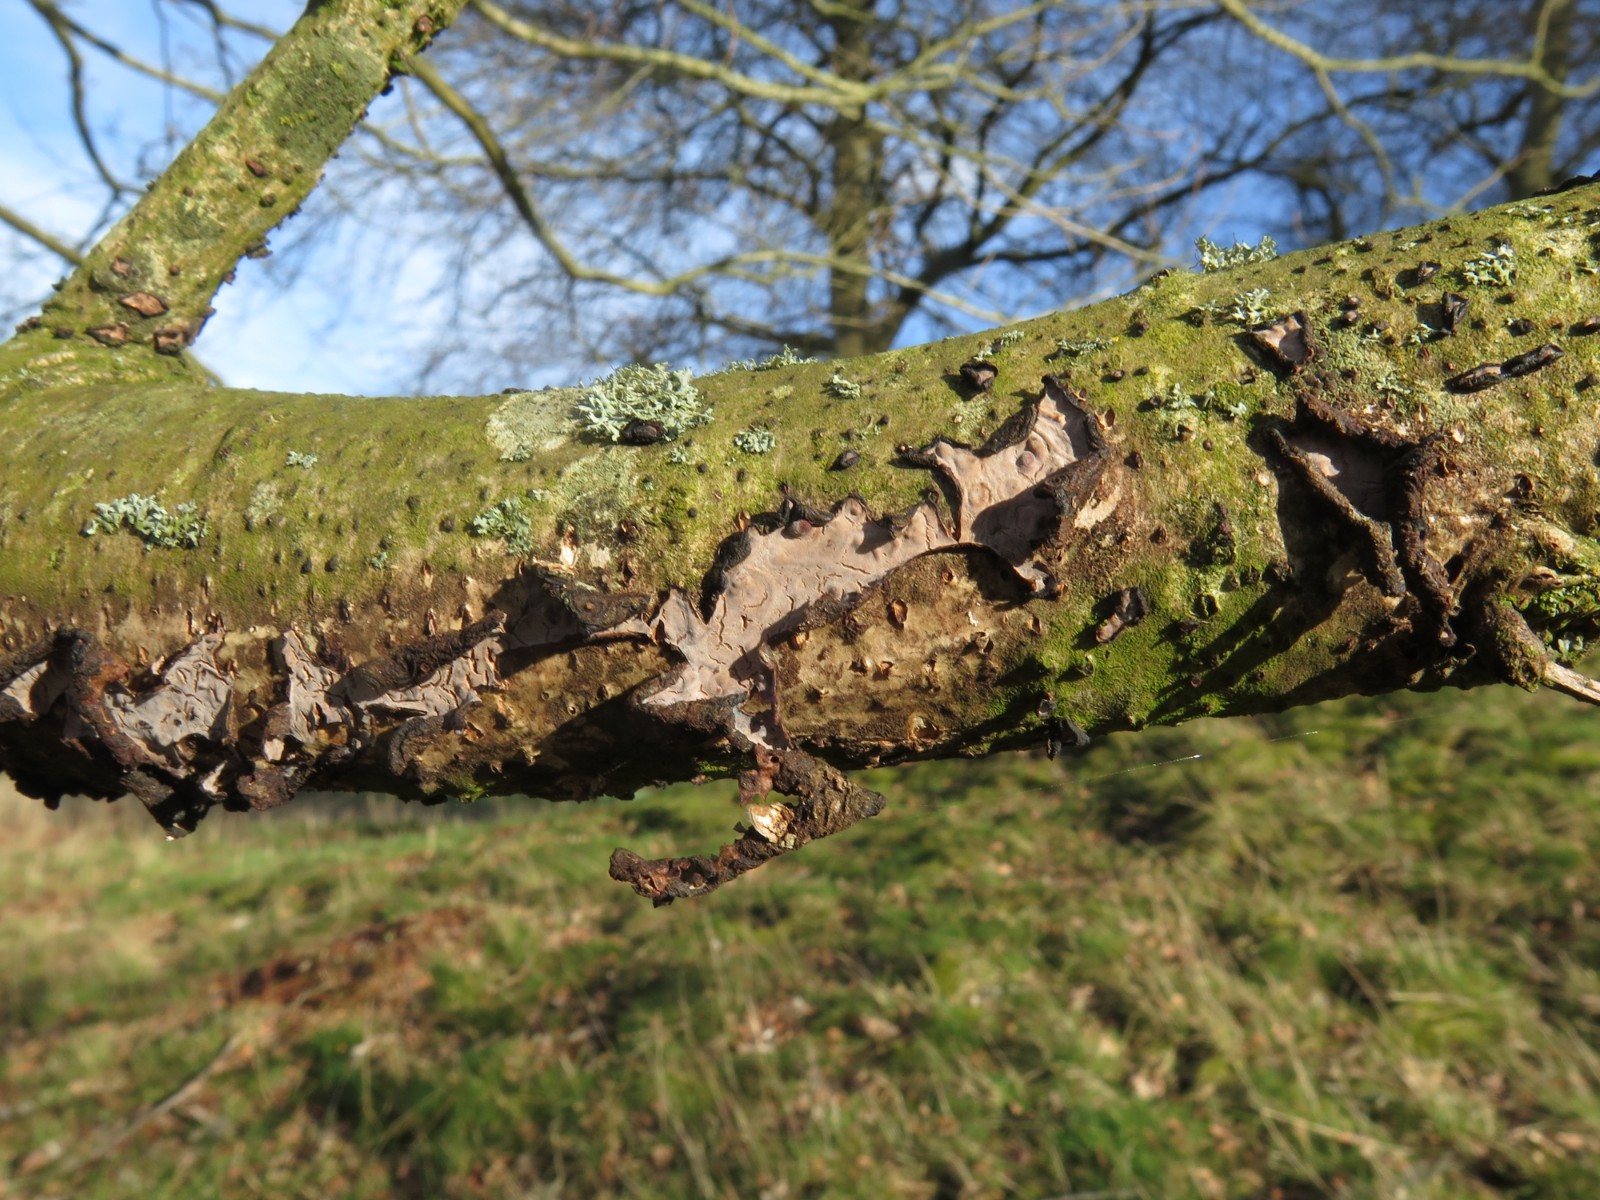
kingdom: Fungi
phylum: Basidiomycota
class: Agaricomycetes
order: Russulales
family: Peniophoraceae
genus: Peniophora
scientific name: Peniophora quercina
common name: ege-voksskind
